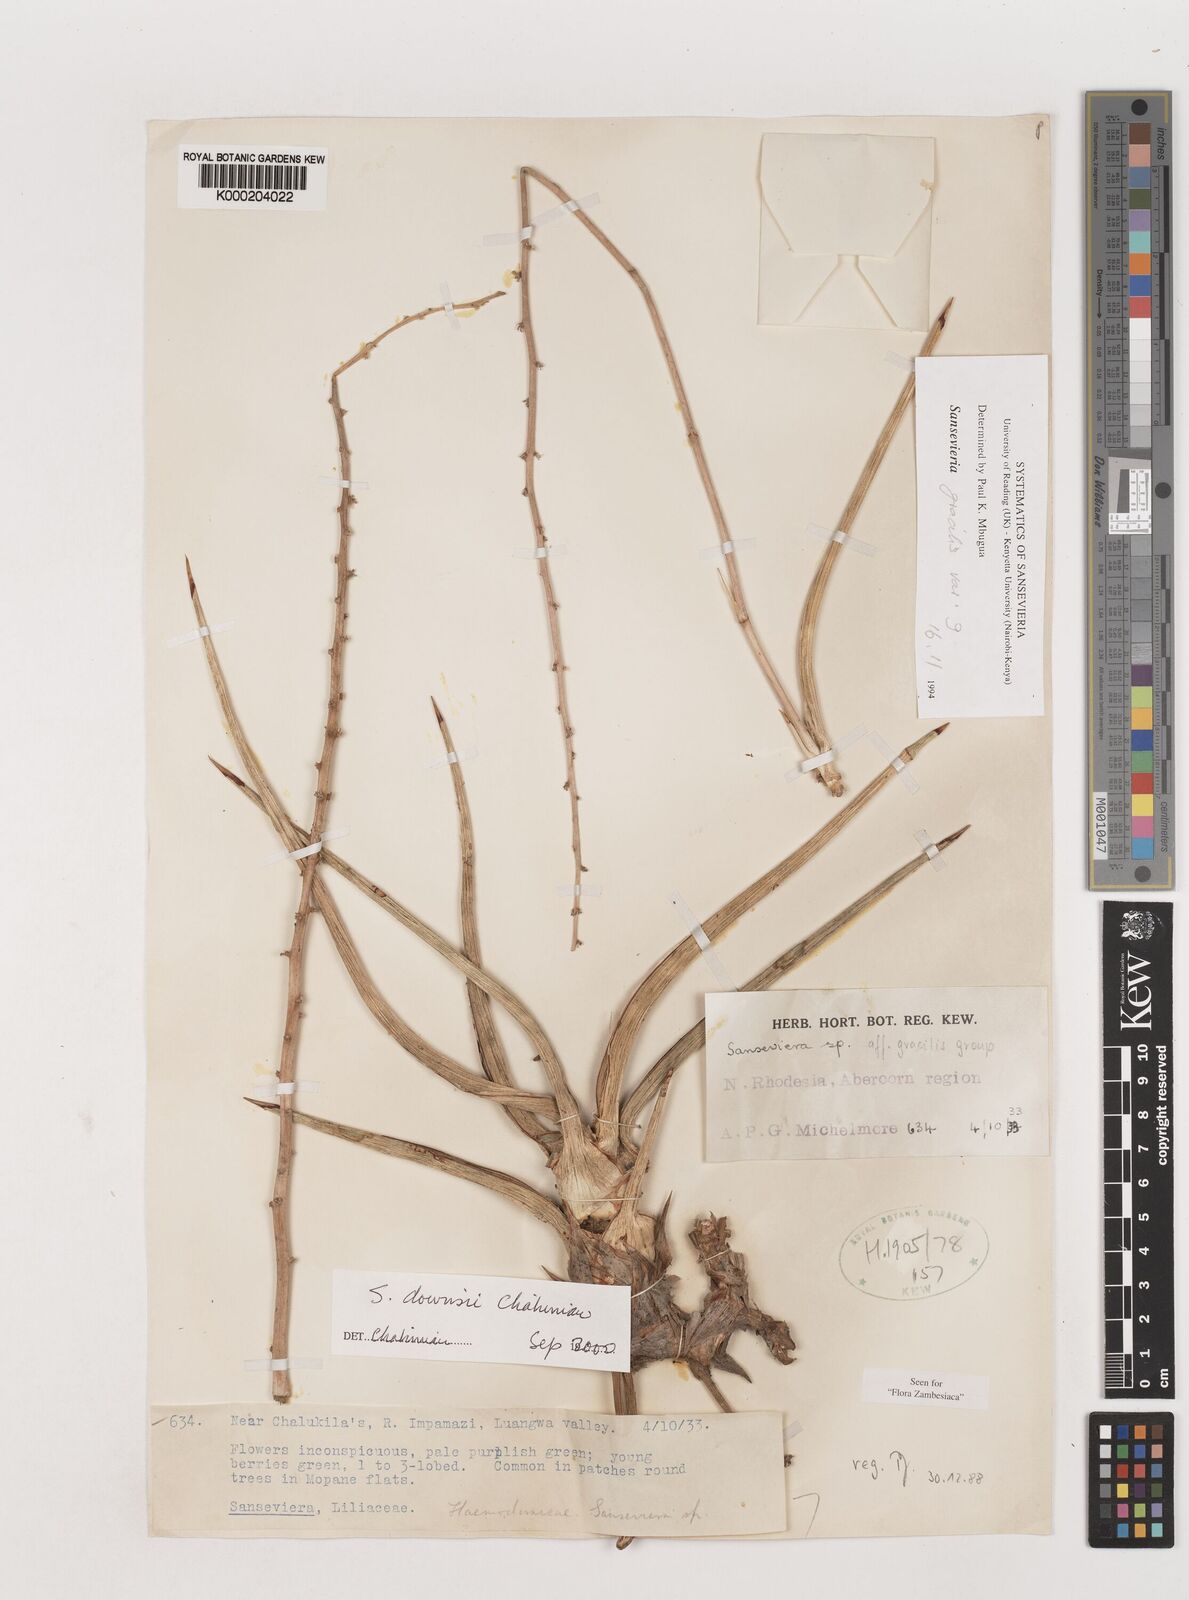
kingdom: Plantae
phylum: Tracheophyta
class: Liliopsida
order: Asparagales
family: Asparagaceae
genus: Dracaena
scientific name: Dracaena downsii
